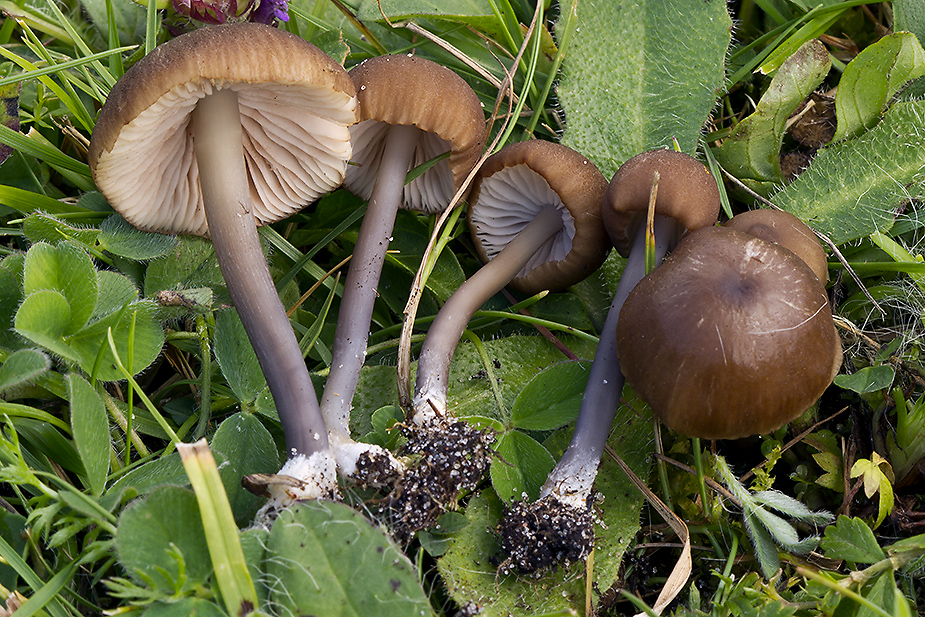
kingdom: Fungi
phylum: Basidiomycota
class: Agaricomycetes
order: Agaricales
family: Entolomataceae
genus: Entoloma
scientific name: Entoloma minutigranulosum
